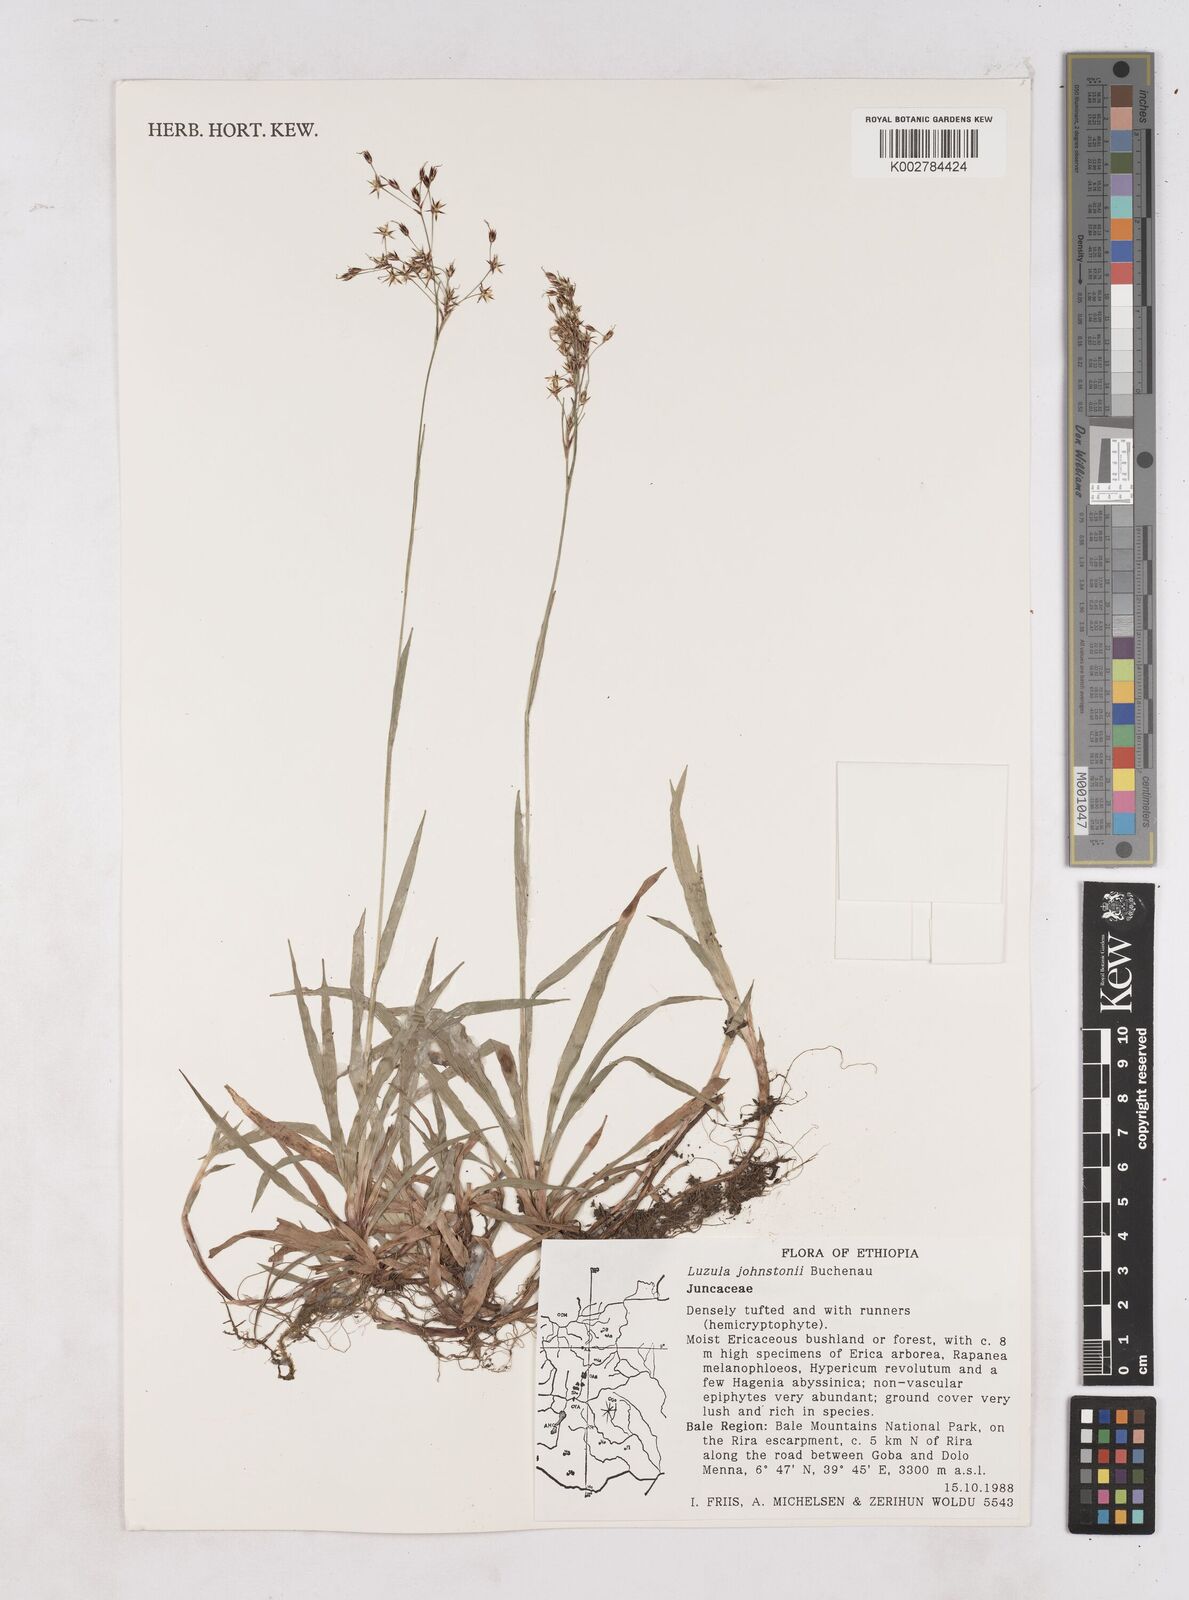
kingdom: Plantae
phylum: Tracheophyta
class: Liliopsida
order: Poales
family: Juncaceae
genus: Luzula
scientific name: Luzula abyssinica
